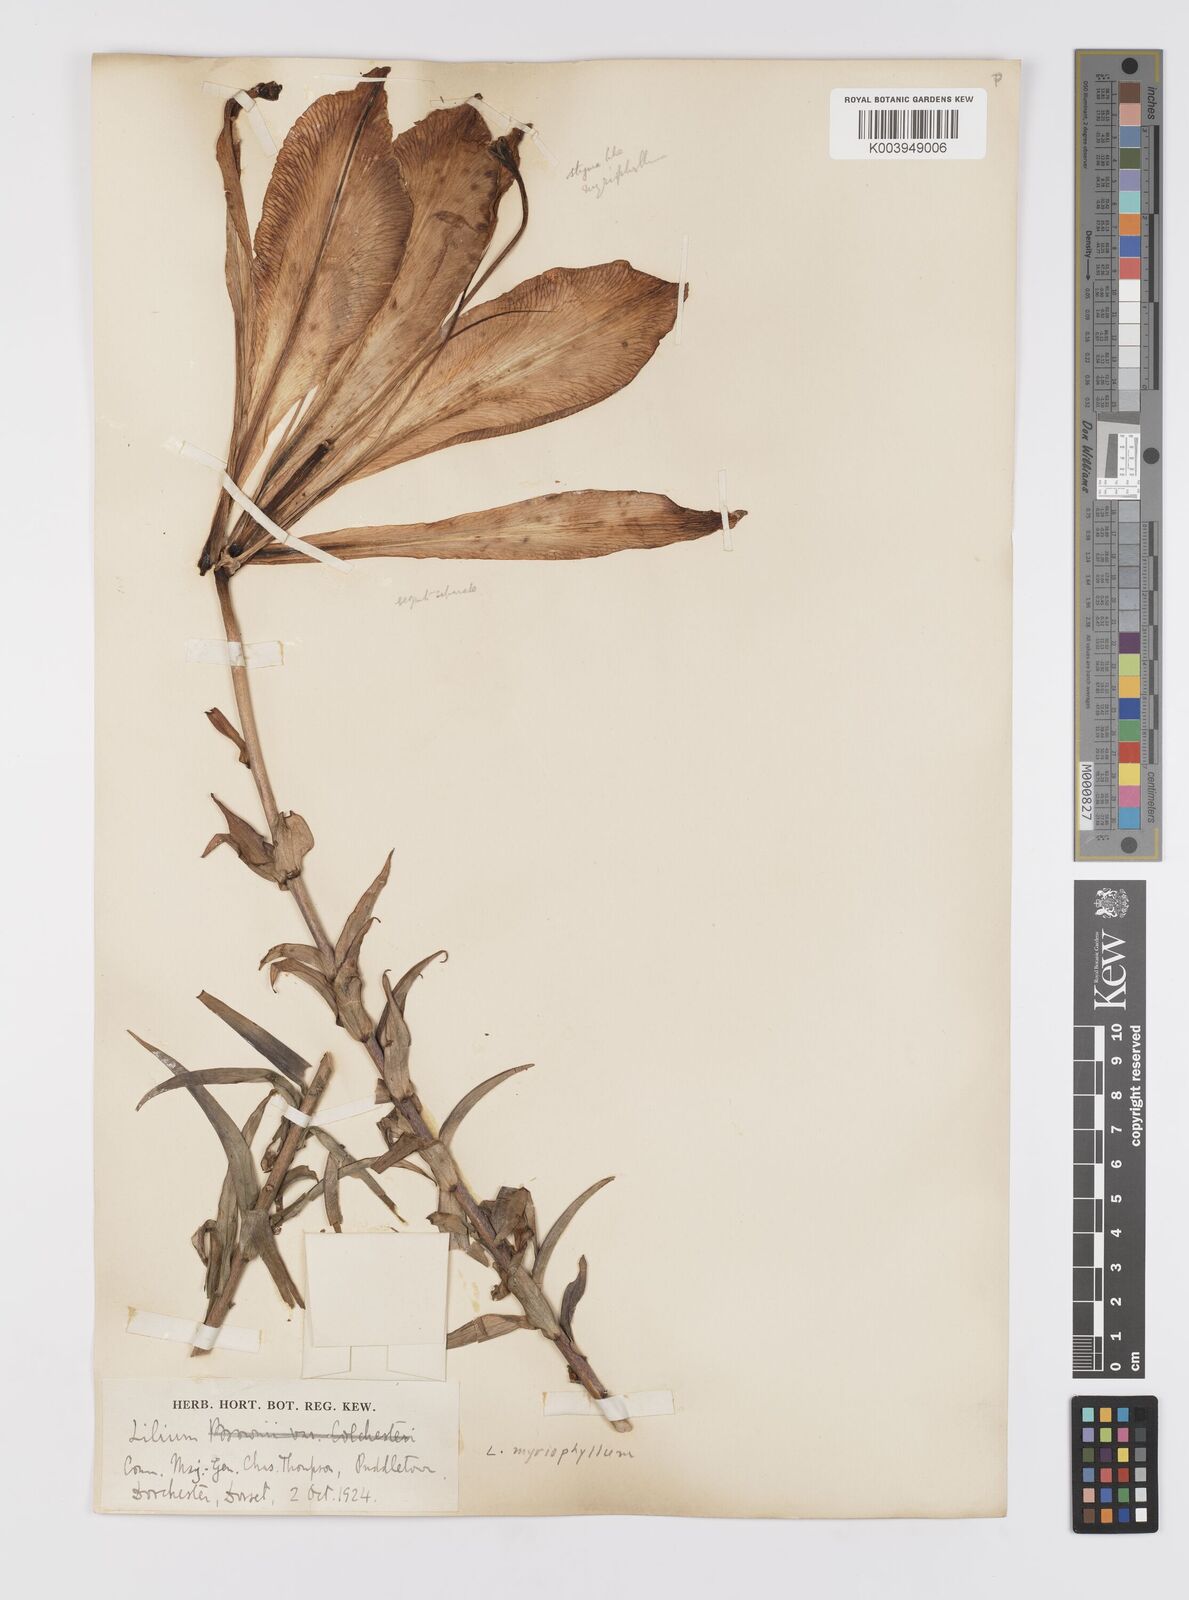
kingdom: Plantae
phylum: Tracheophyta
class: Liliopsida
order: Liliales
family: Liliaceae
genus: Lilium
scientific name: Lilium
